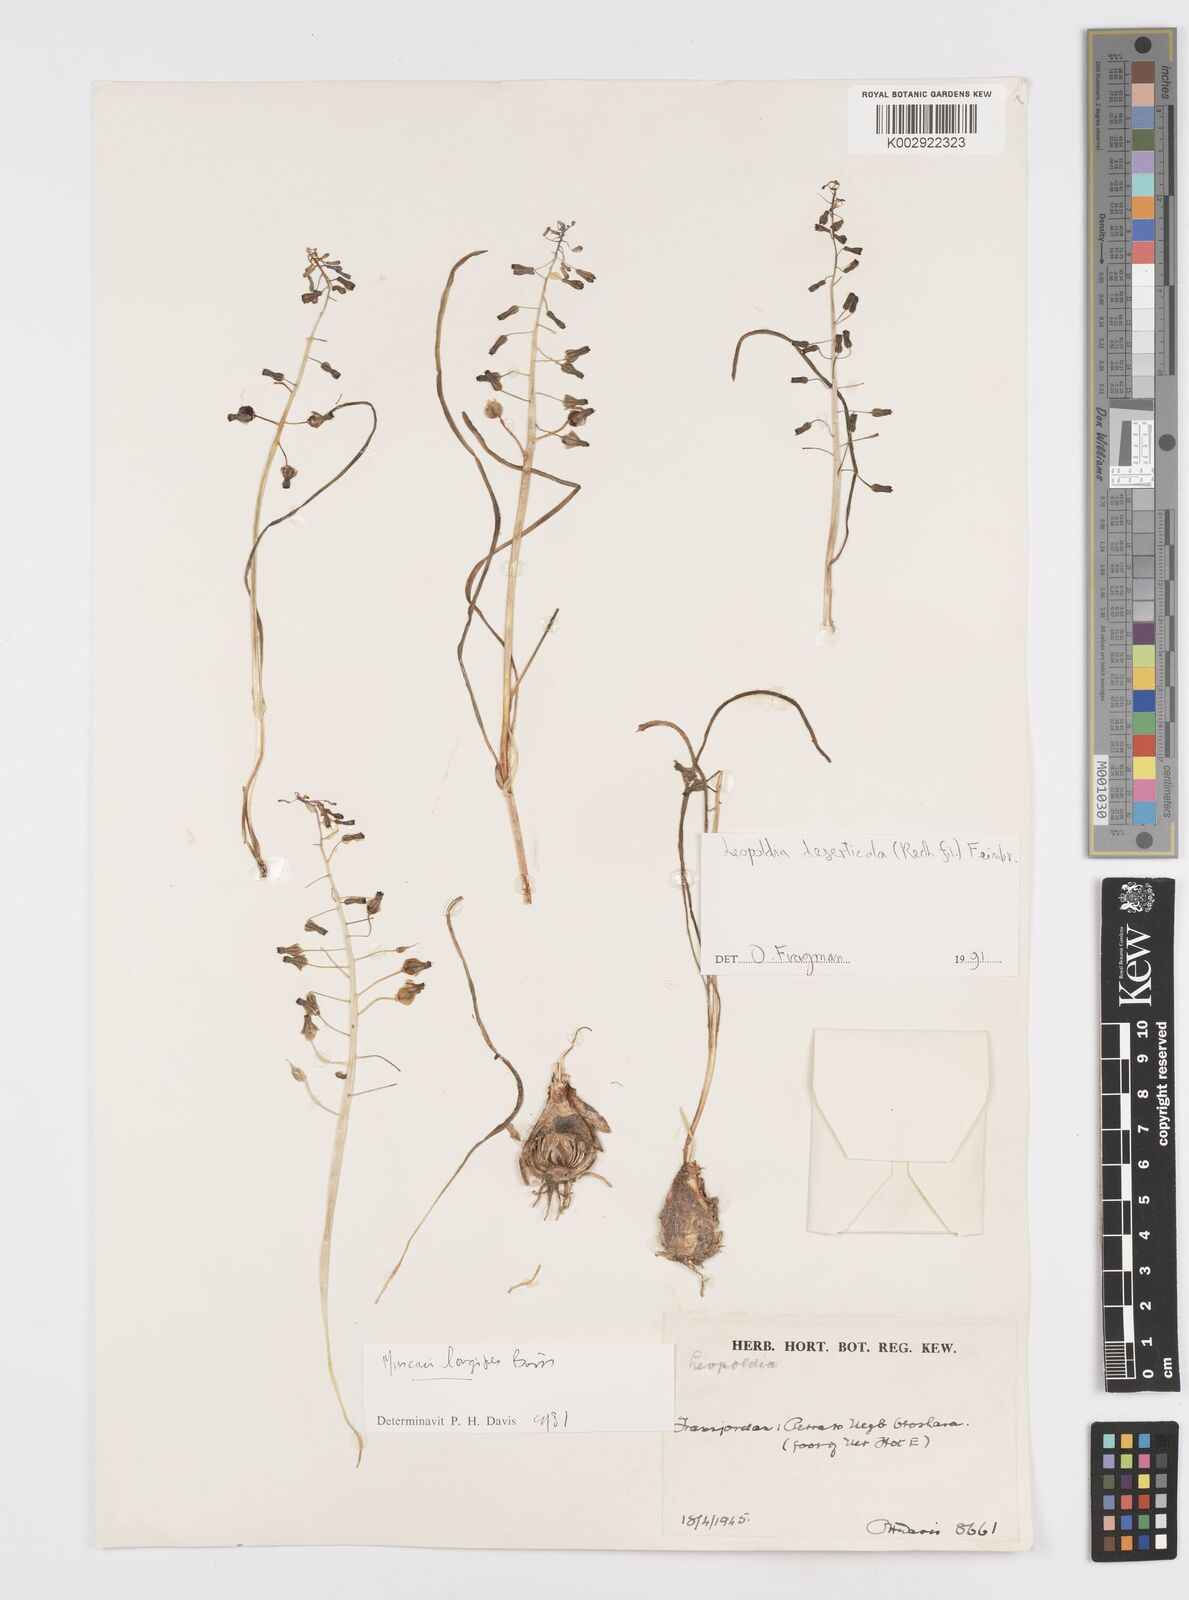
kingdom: Plantae
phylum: Tracheophyta
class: Liliopsida
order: Asparagales
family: Asparagaceae
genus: Muscari
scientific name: Muscari longipes
